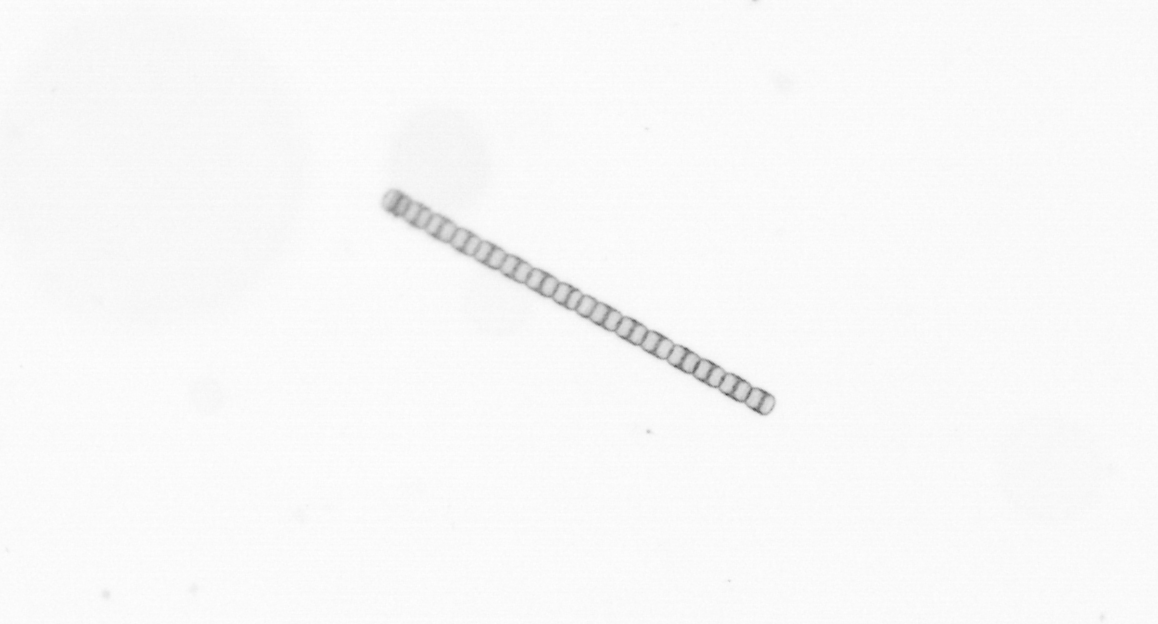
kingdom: Chromista
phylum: Ochrophyta
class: Bacillariophyceae
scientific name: Bacillariophyceae
